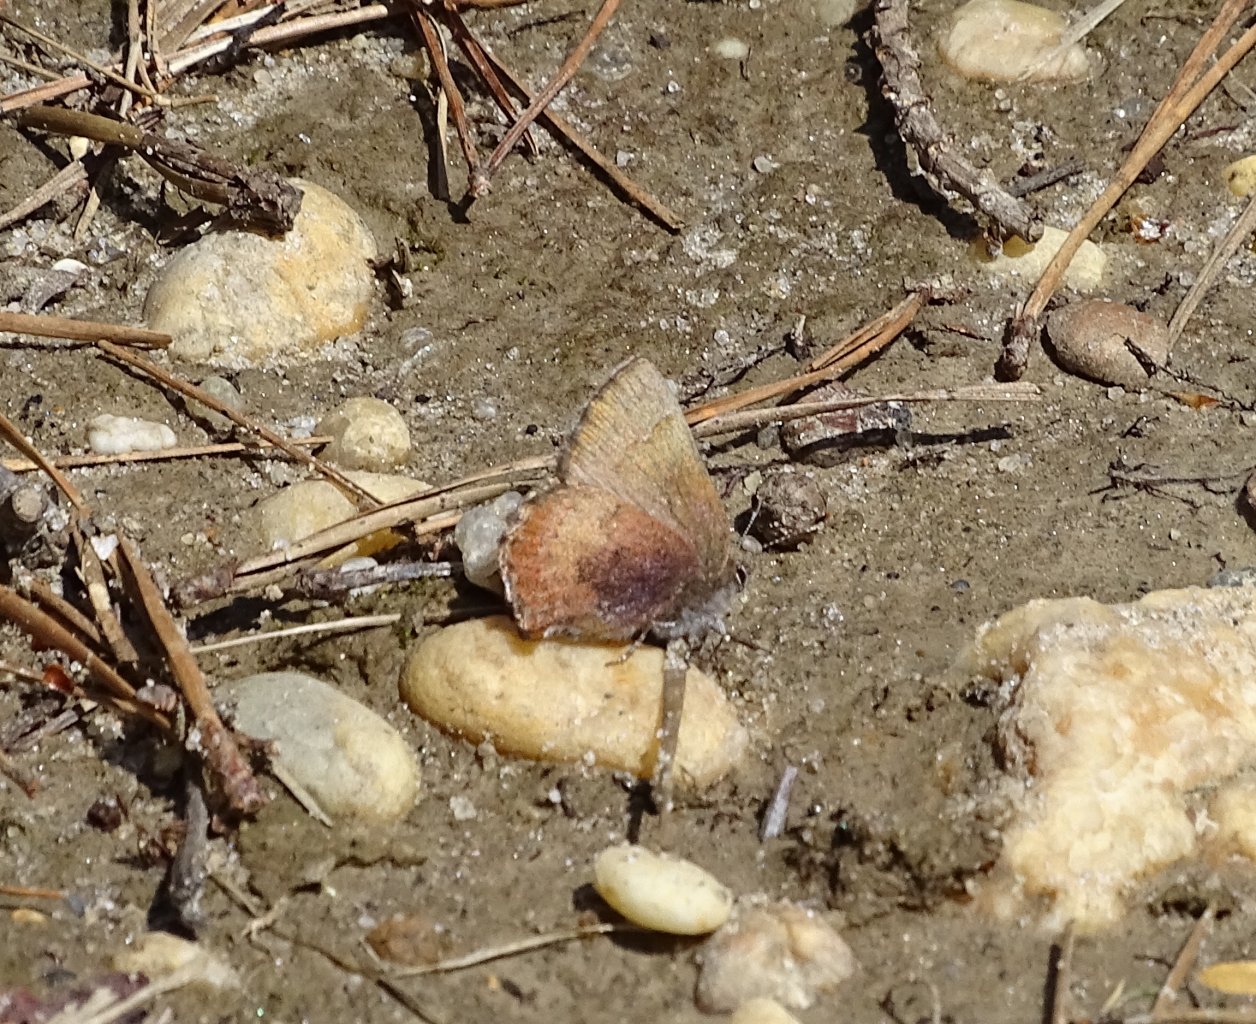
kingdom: Animalia
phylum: Arthropoda
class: Insecta
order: Lepidoptera
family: Lycaenidae
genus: Incisalia
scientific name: Incisalia irioides
